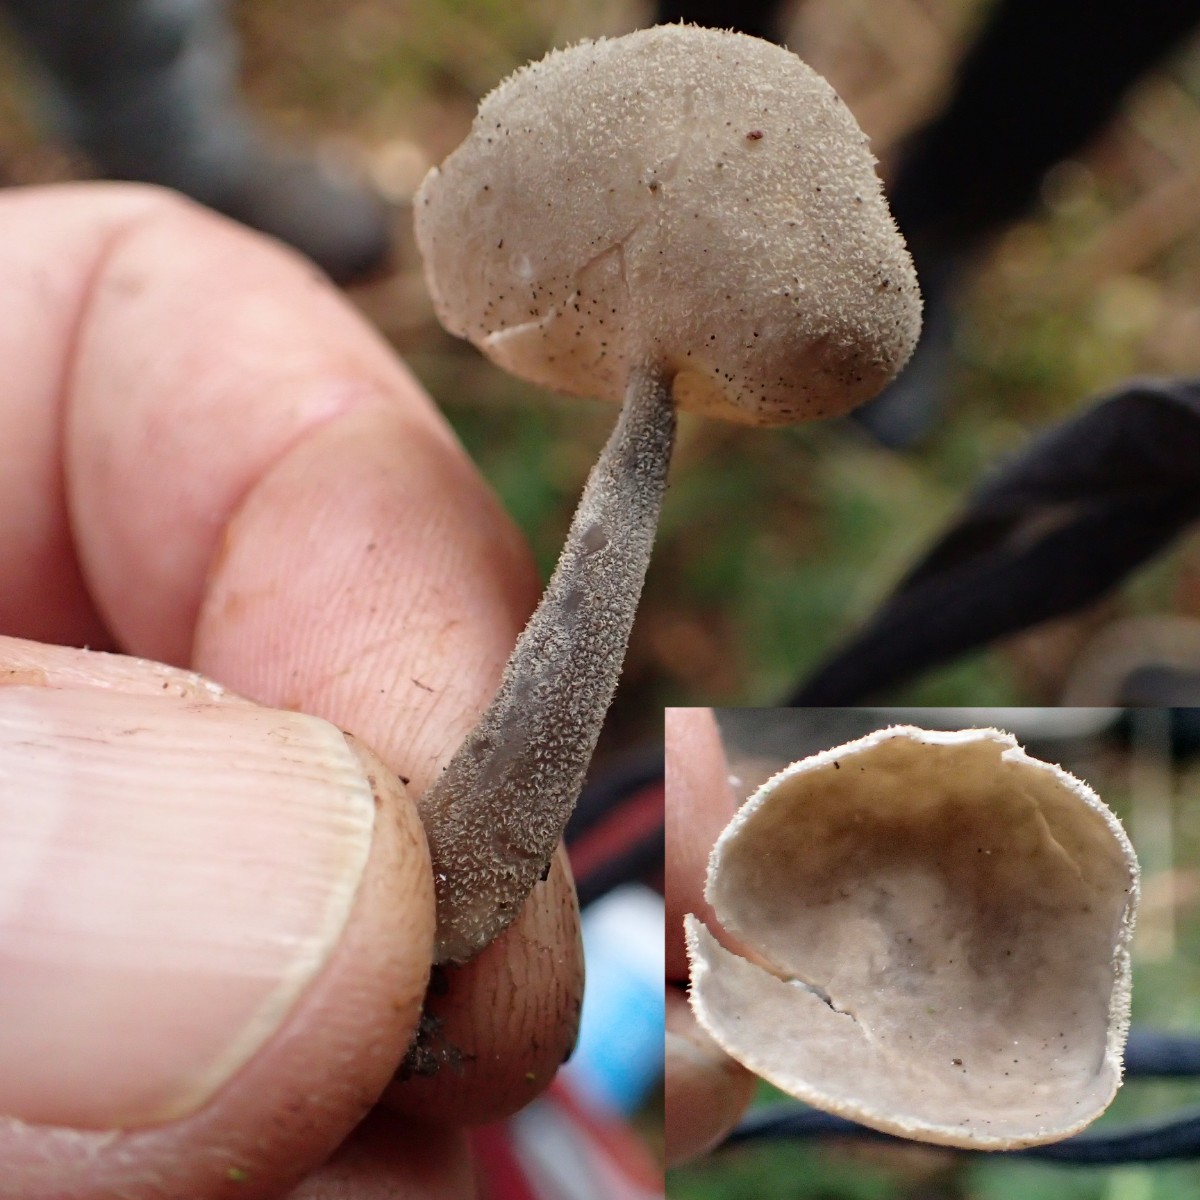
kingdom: Fungi
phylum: Ascomycota
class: Pezizomycetes
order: Pezizales
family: Helvellaceae
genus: Helvella
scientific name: Helvella
